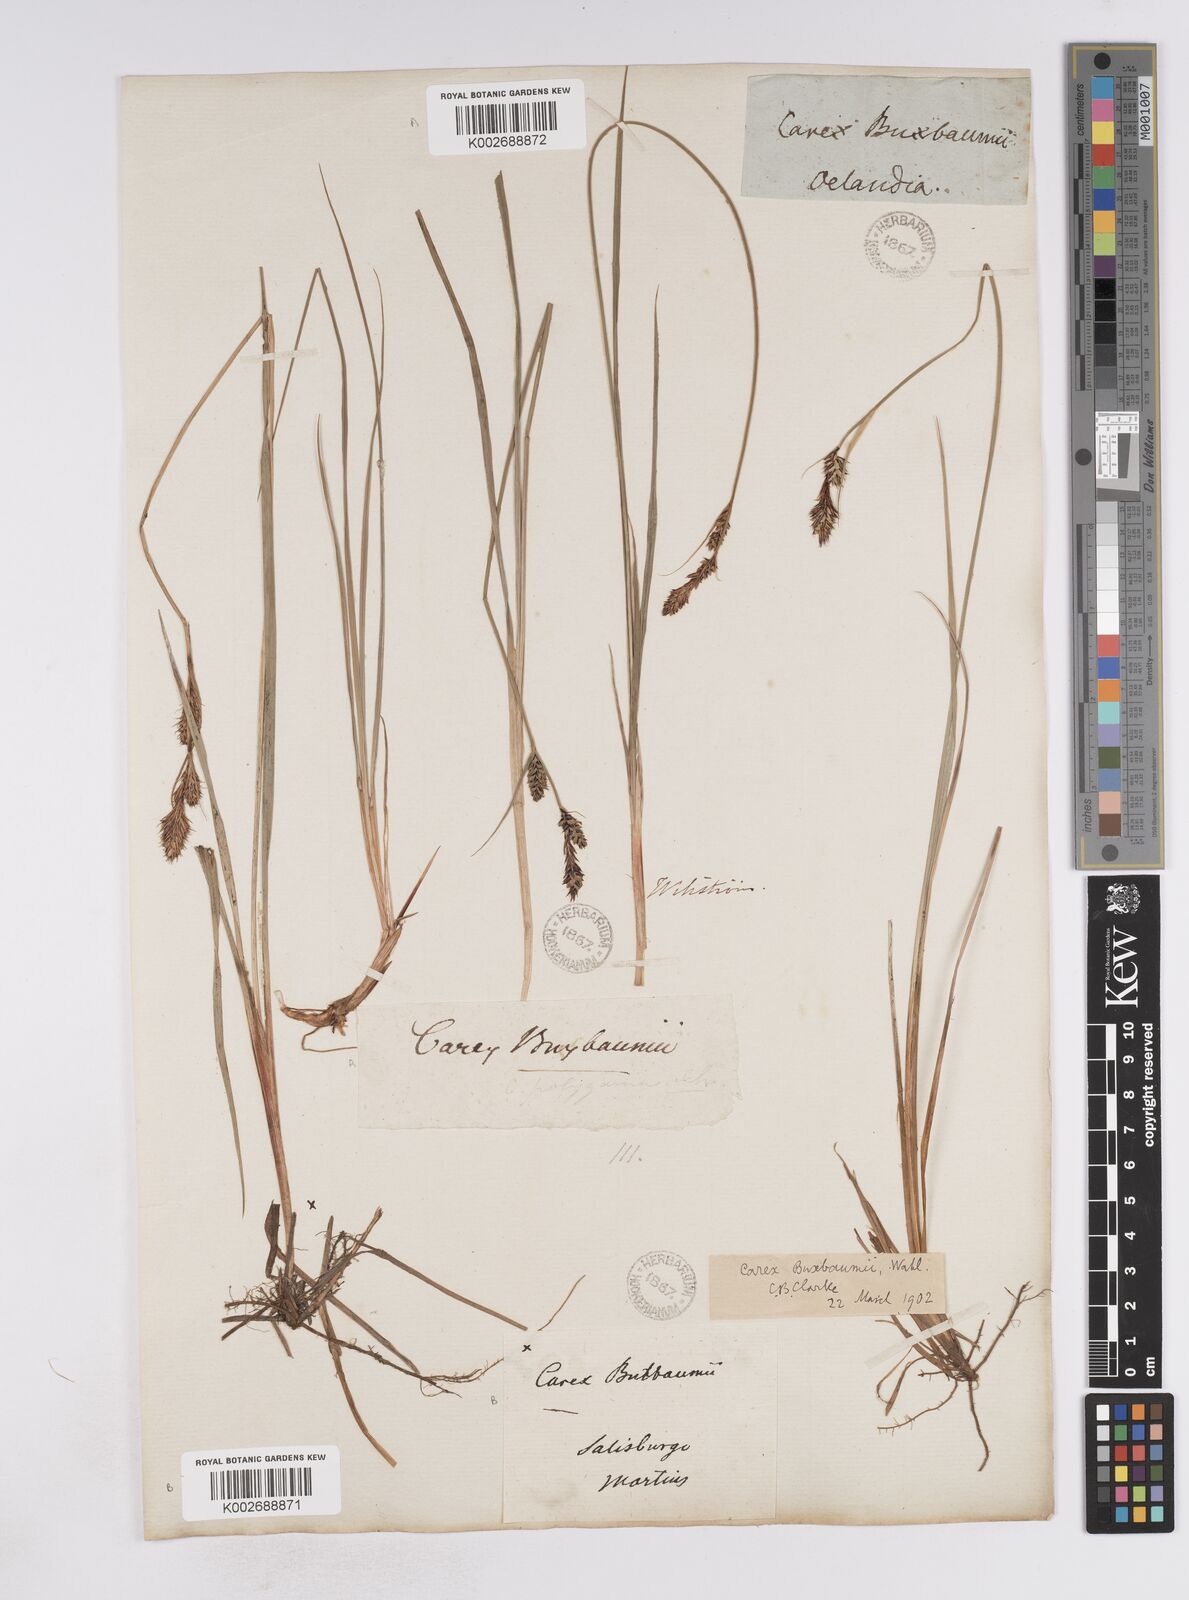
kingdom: Plantae
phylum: Tracheophyta
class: Liliopsida
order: Poales
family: Cyperaceae
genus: Carex
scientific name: Carex buxbaumii
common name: Club sedge
